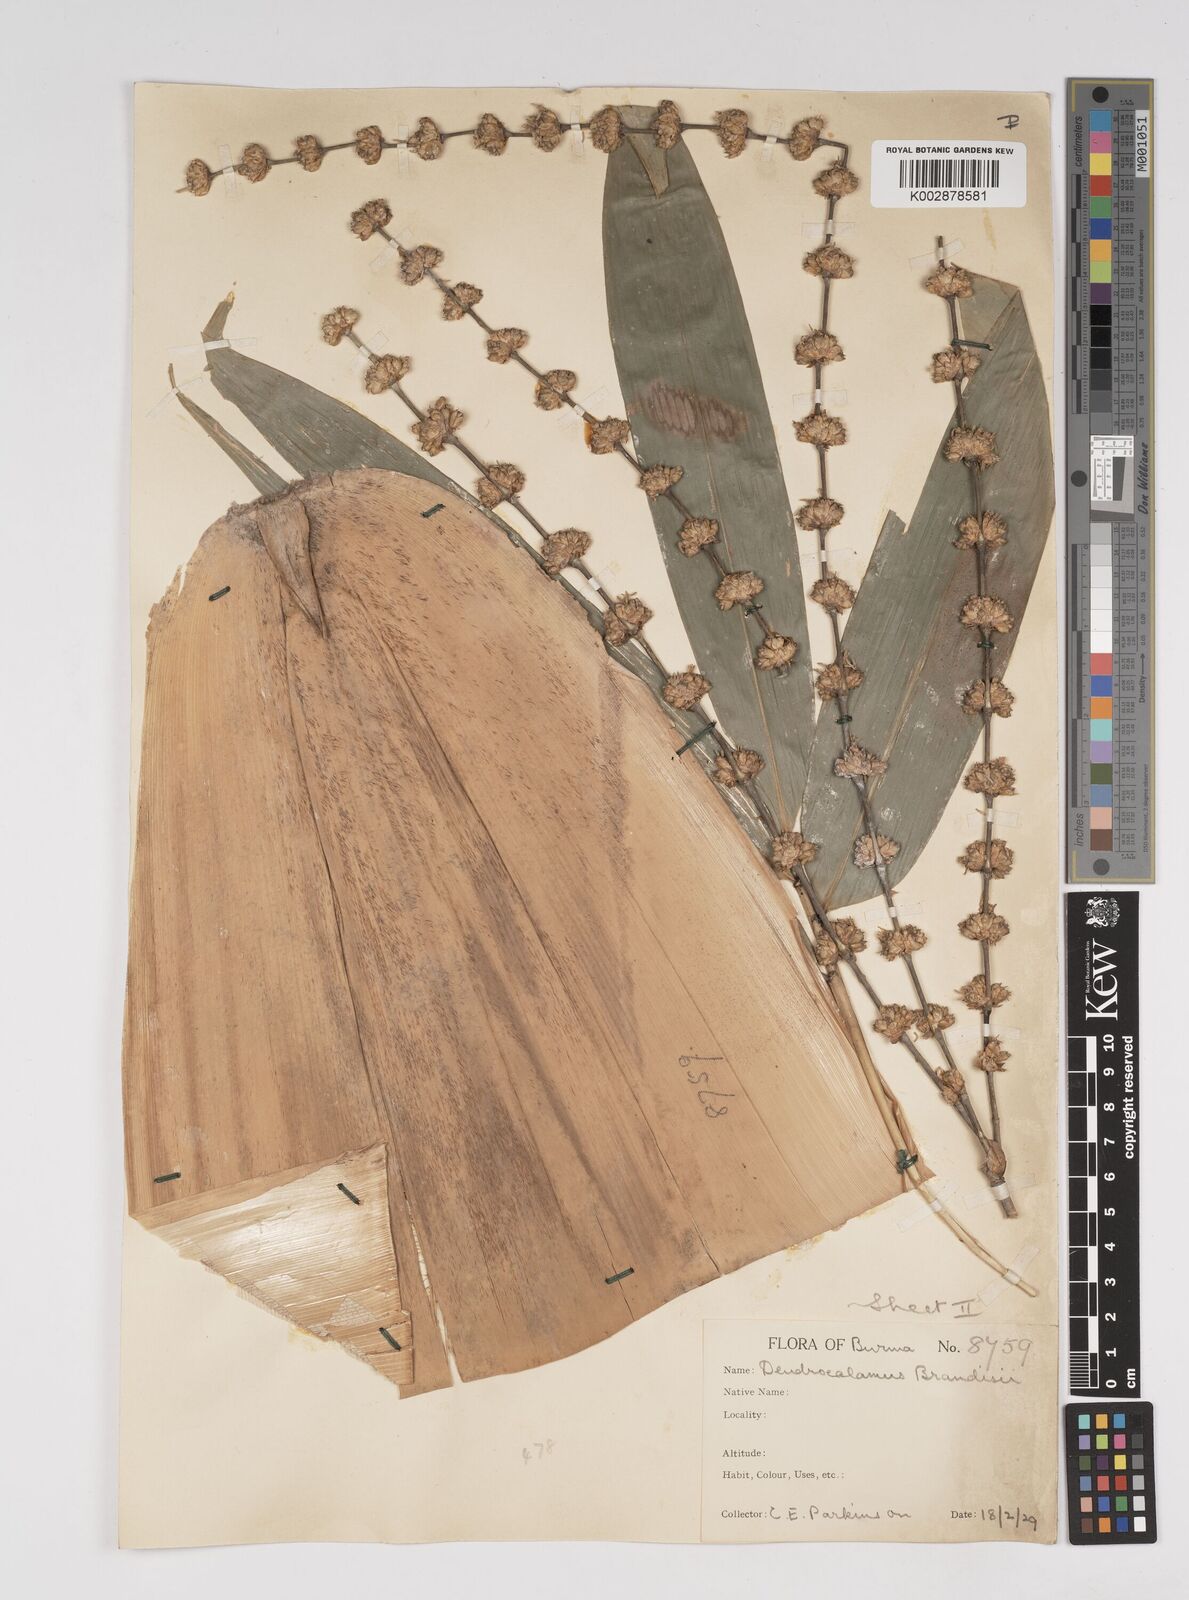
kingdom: Plantae
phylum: Tracheophyta
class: Liliopsida
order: Poales
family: Poaceae
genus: Dendrocalamus
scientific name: Dendrocalamus brandisii
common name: Velvetleaf bamboo
